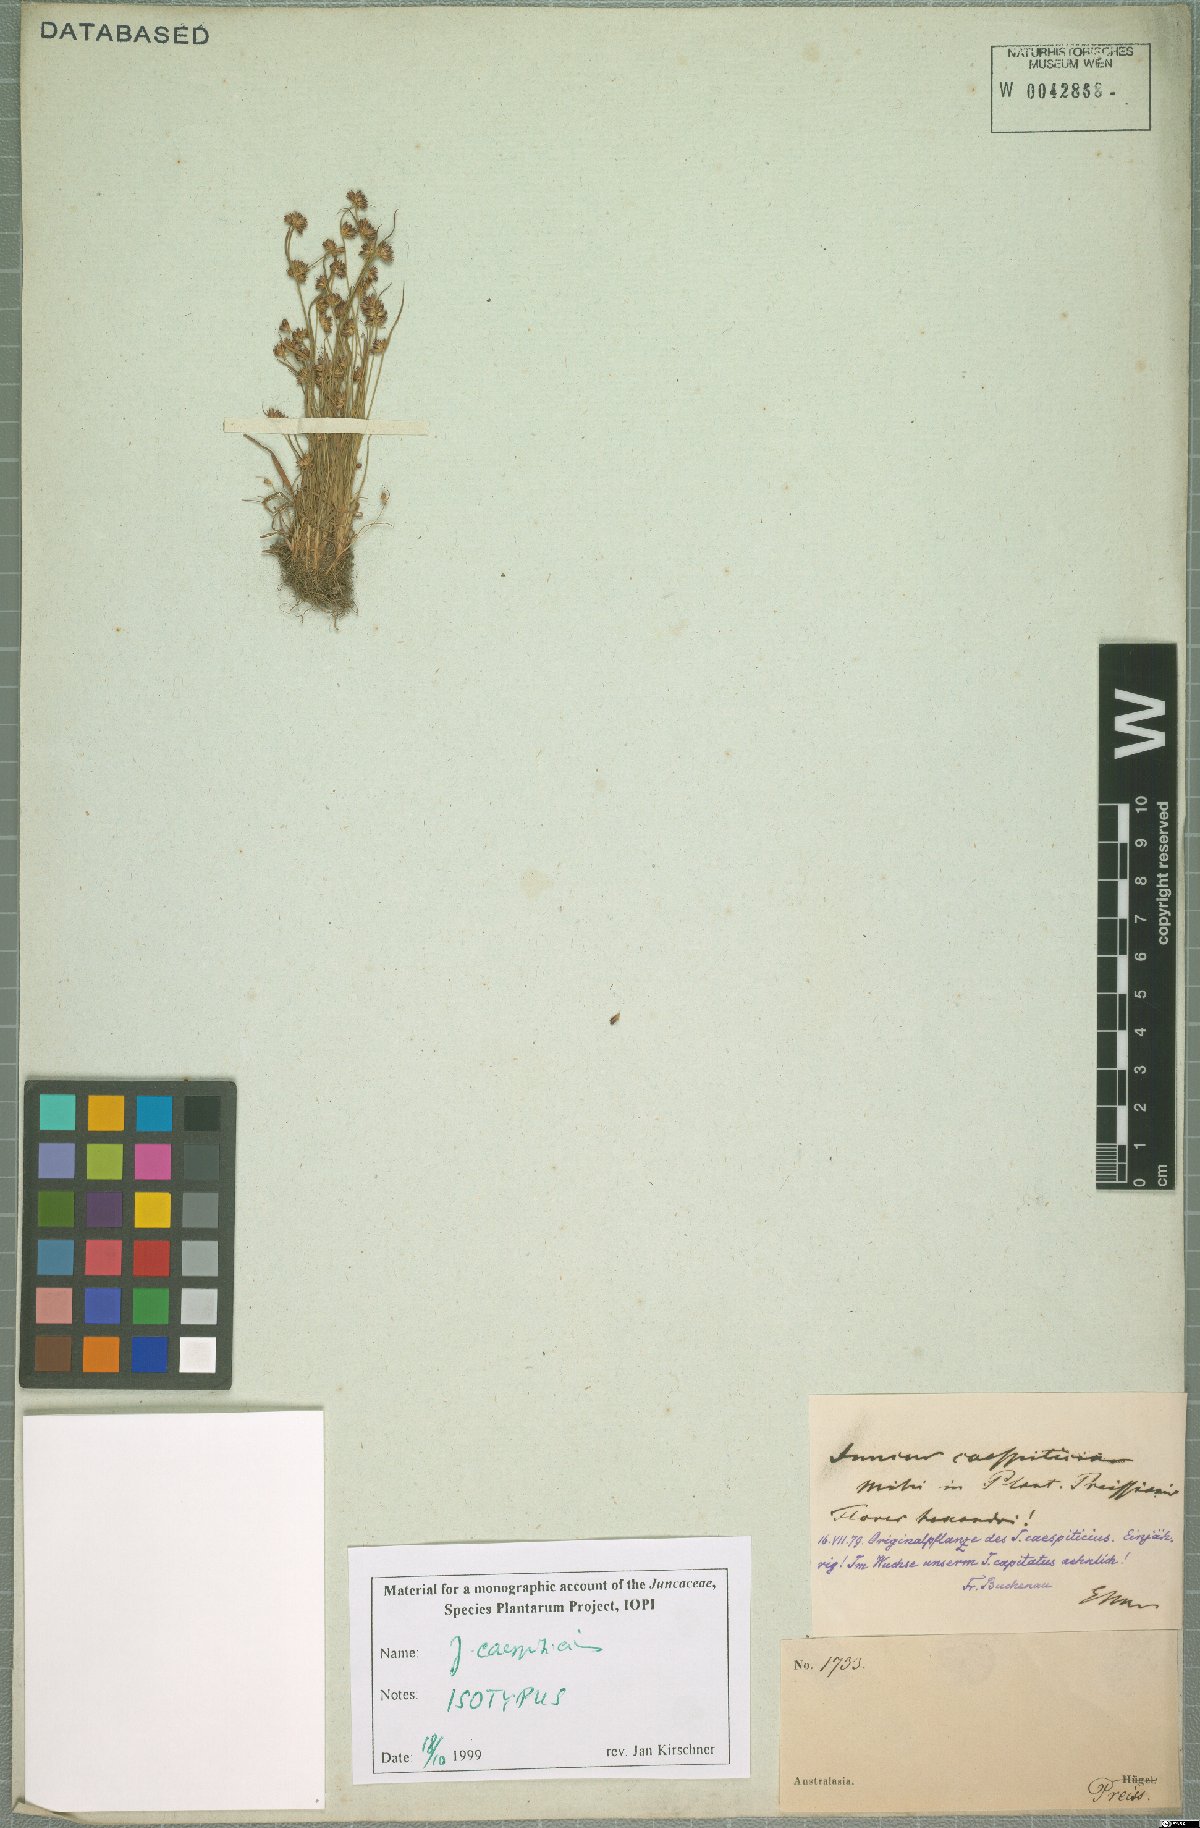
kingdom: Plantae
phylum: Tracheophyta
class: Liliopsida
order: Poales
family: Juncaceae
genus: Juncus
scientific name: Juncus caespiticius
